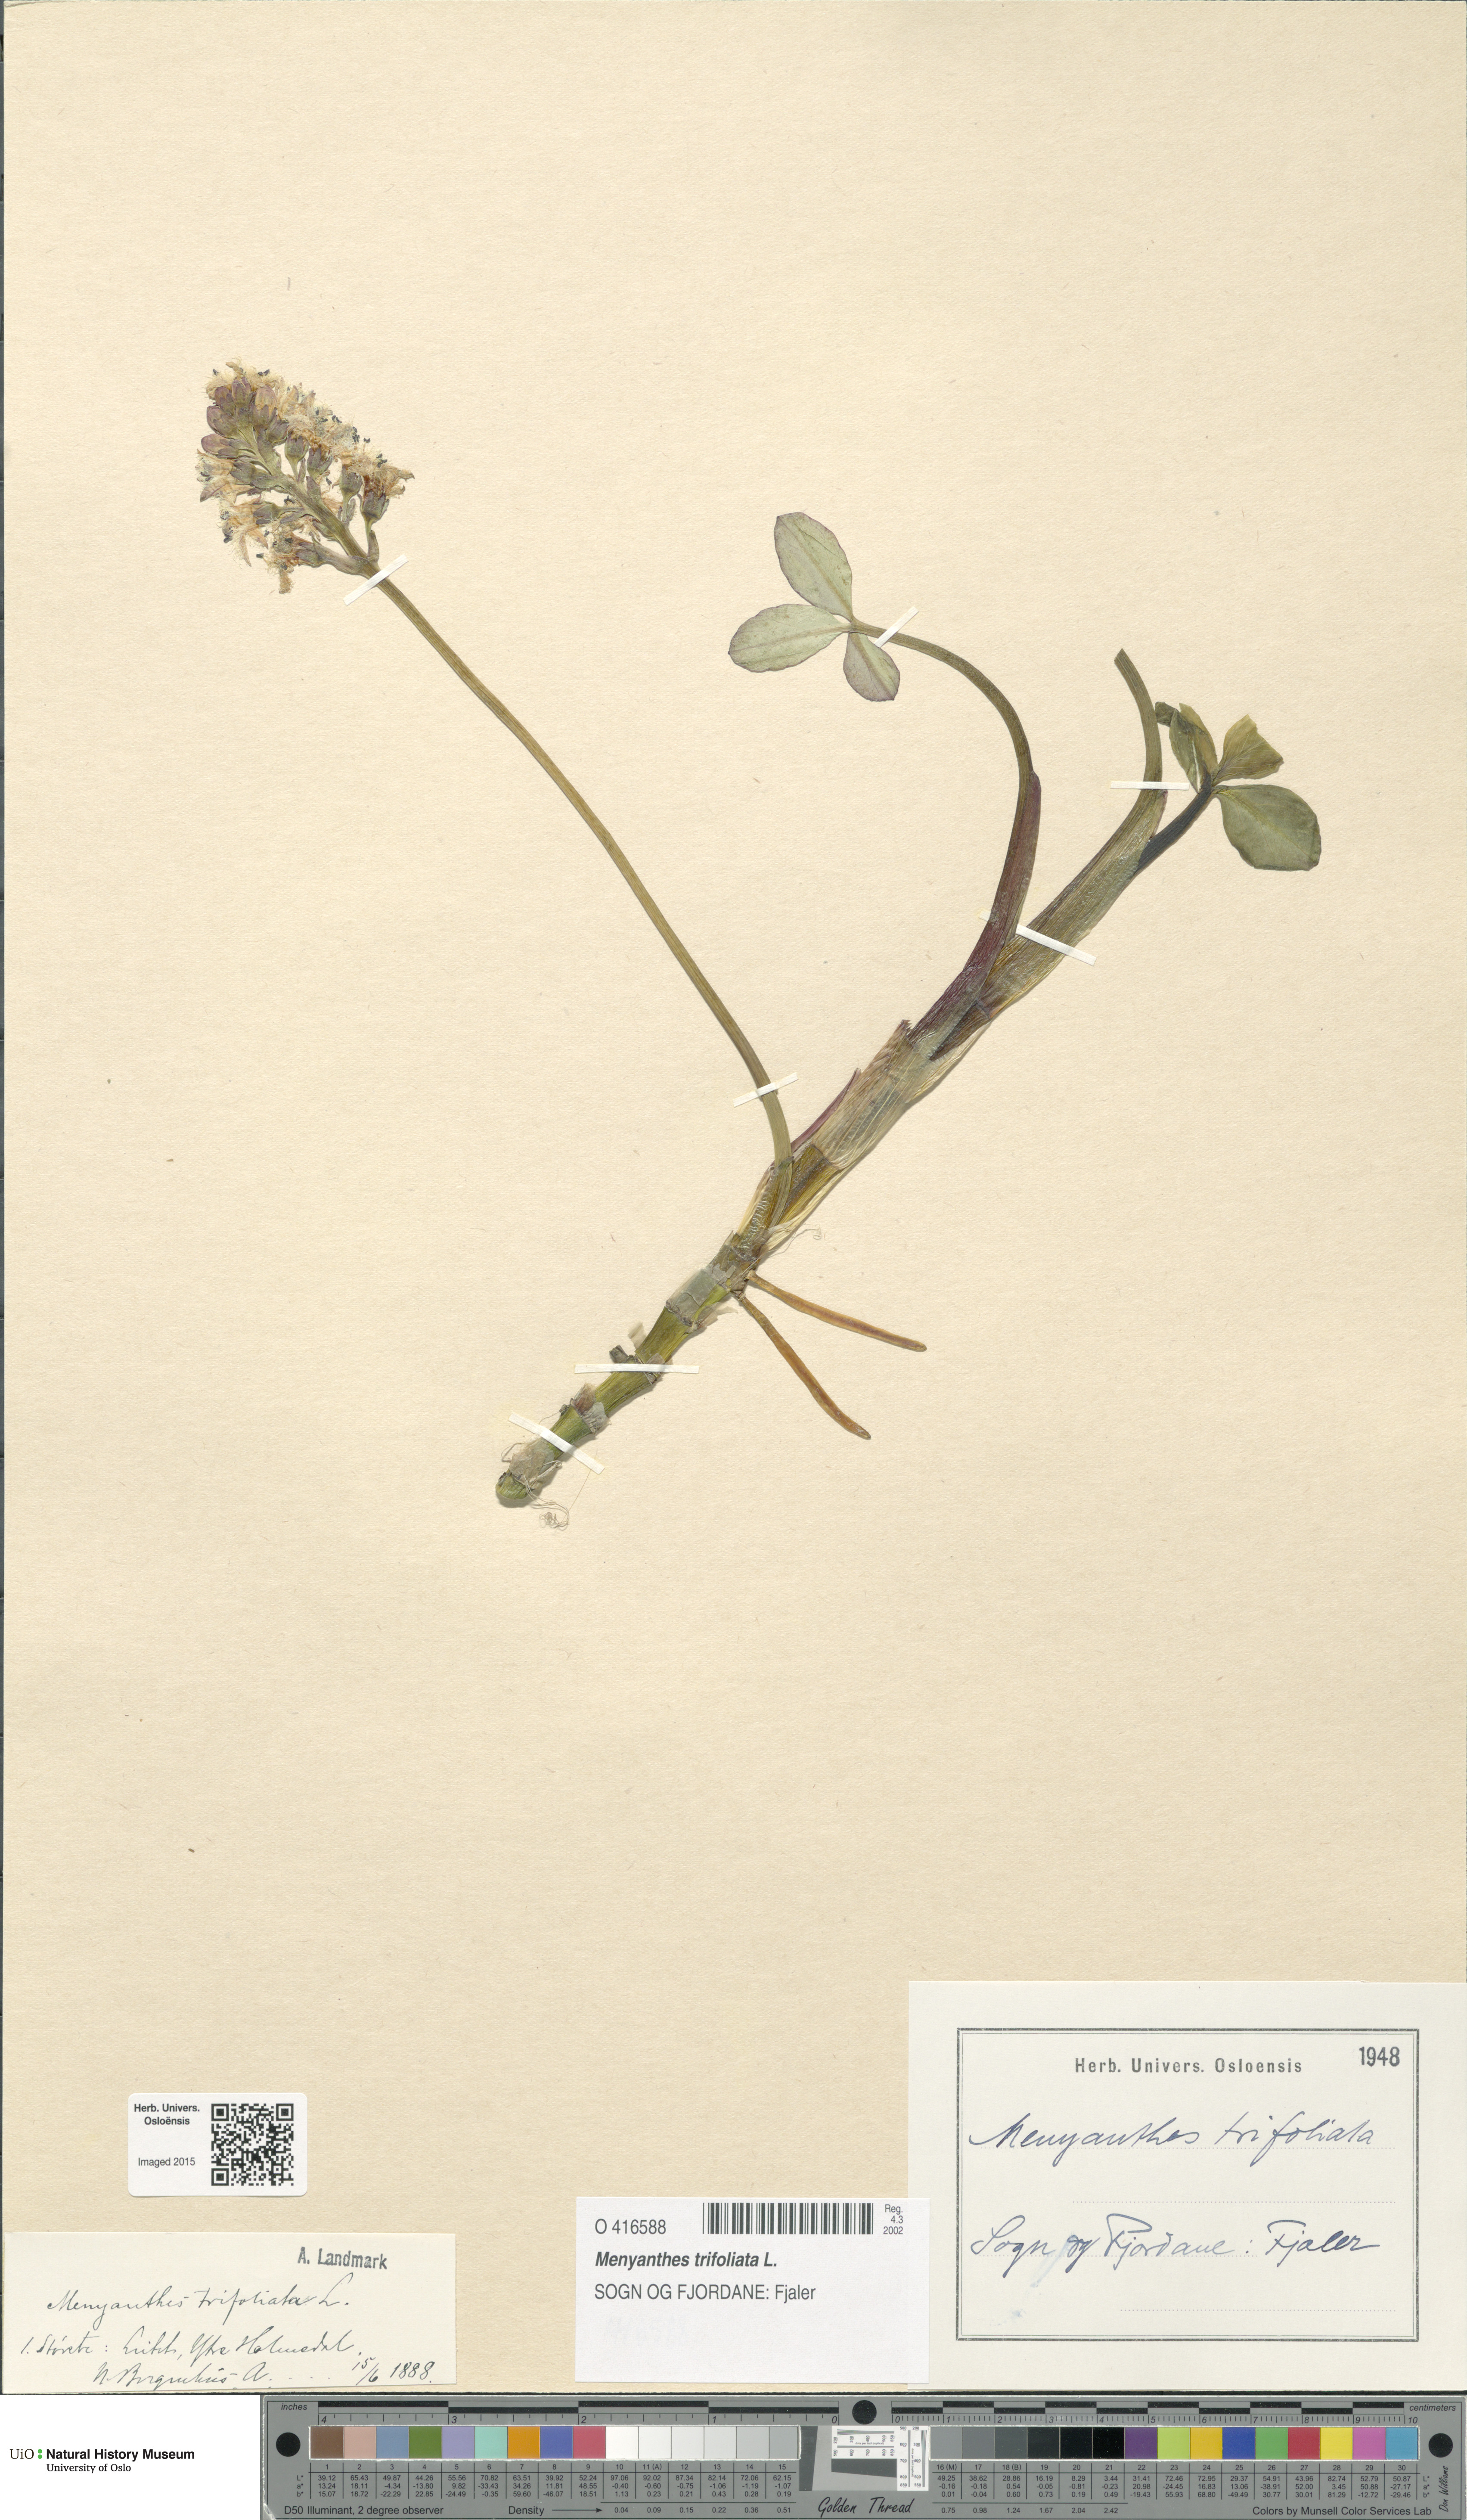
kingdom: Plantae
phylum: Tracheophyta
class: Magnoliopsida
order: Asterales
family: Menyanthaceae
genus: Menyanthes
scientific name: Menyanthes trifoliata
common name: Bogbean
